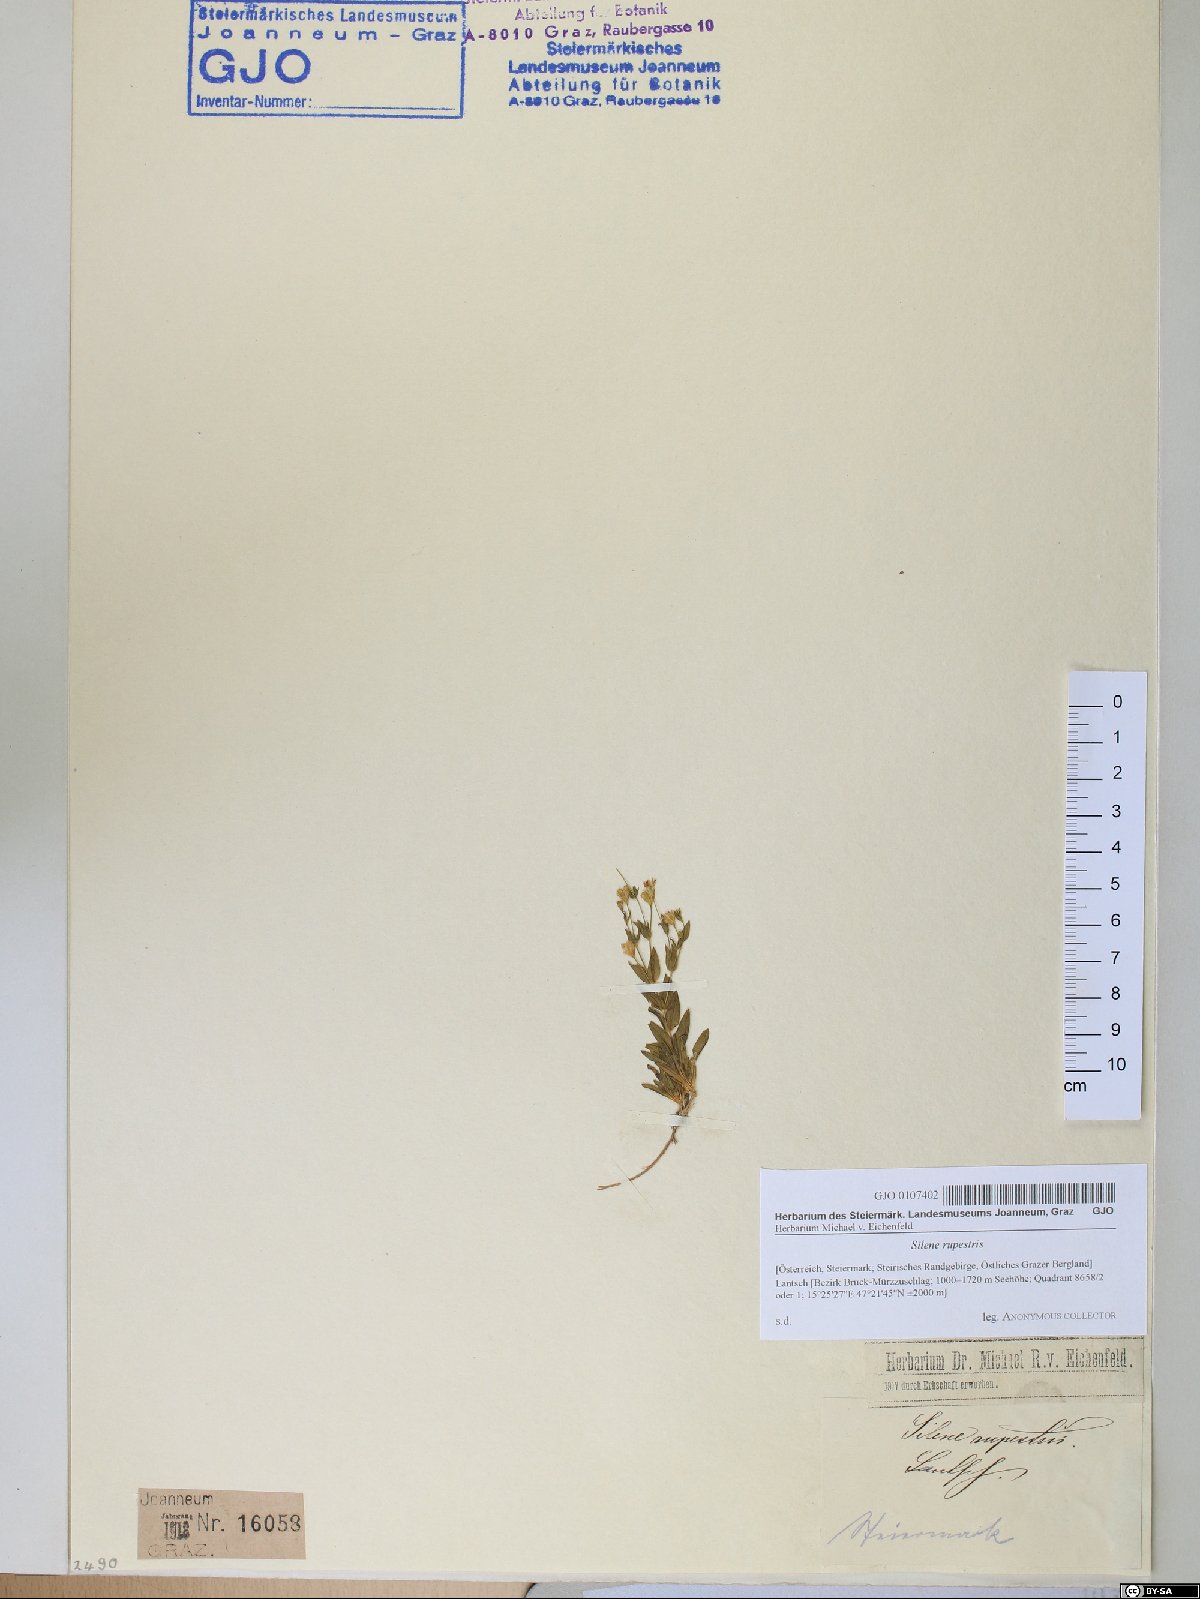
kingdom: Plantae
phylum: Tracheophyta
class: Magnoliopsida
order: Caryophyllales
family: Caryophyllaceae
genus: Atocion
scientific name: Atocion rupestre
